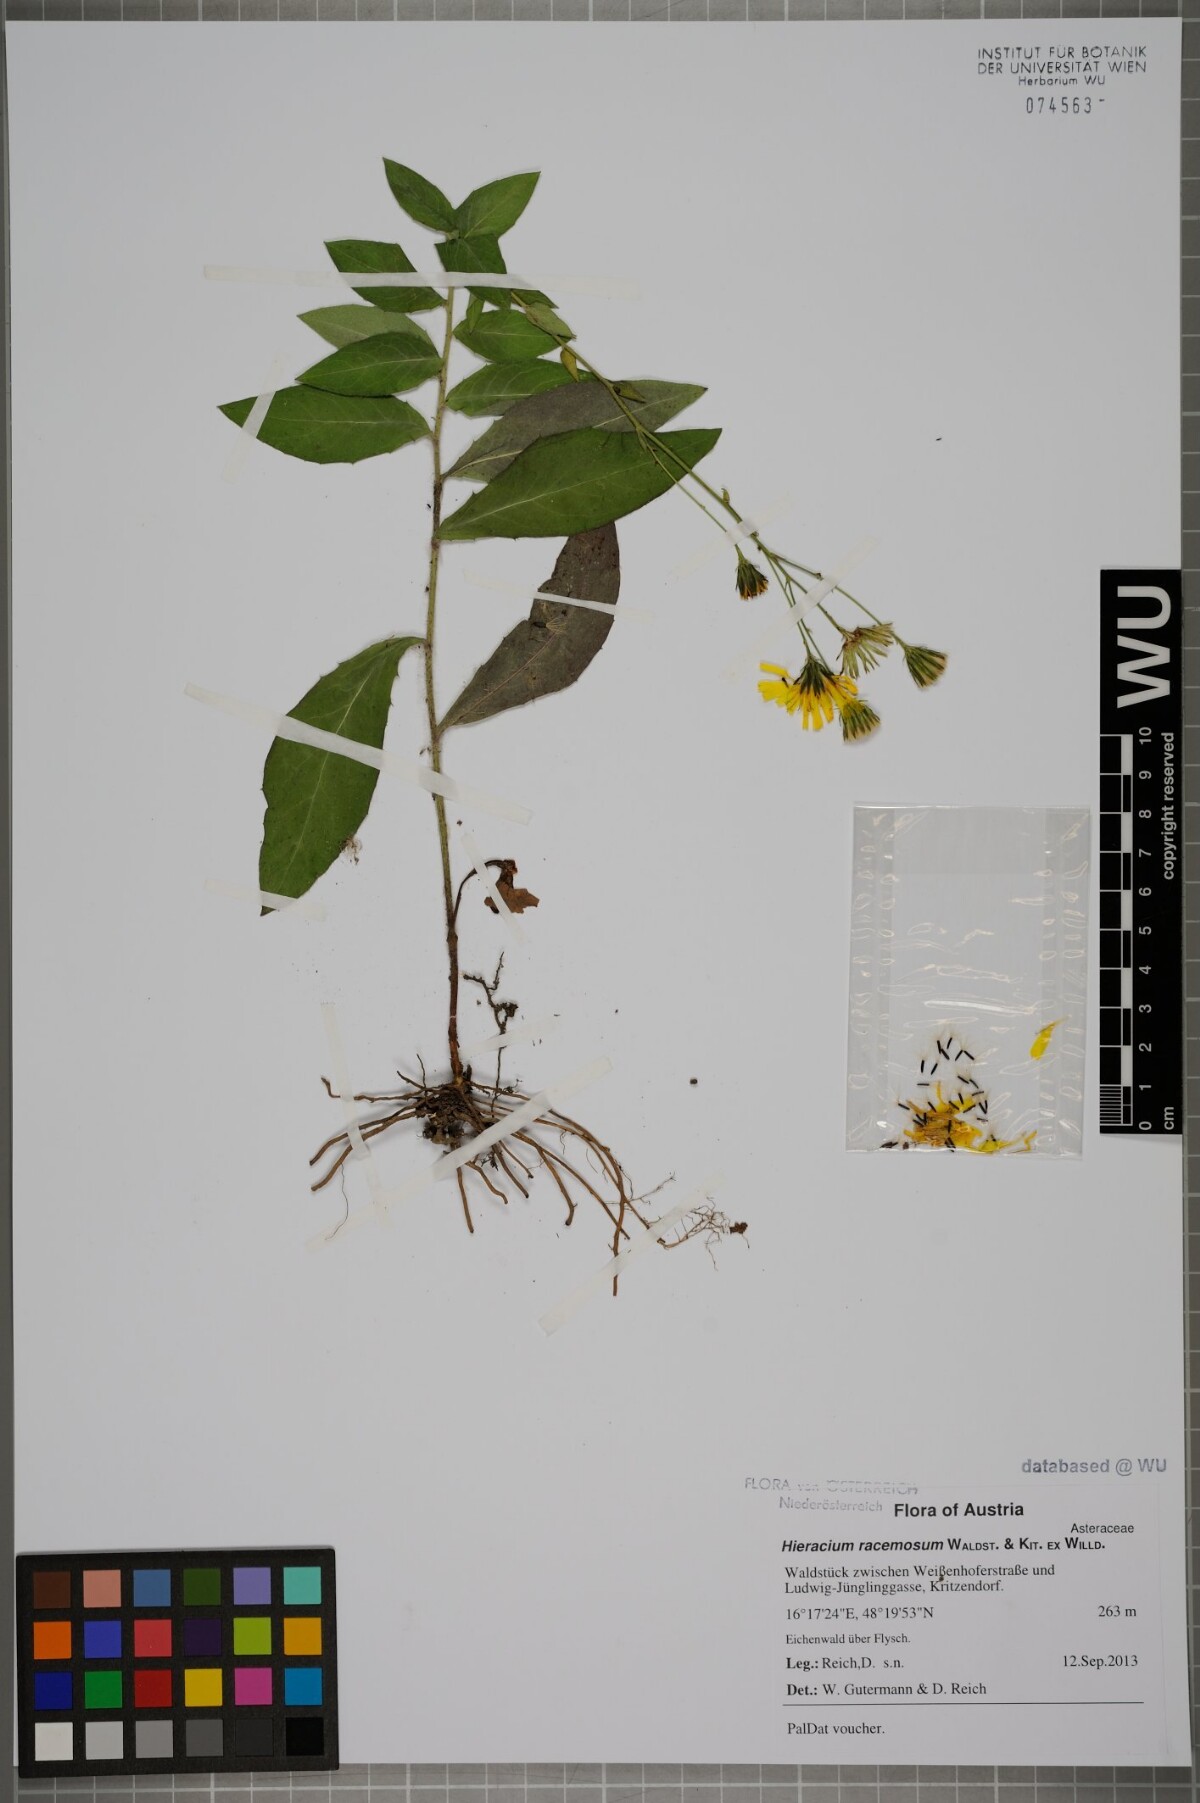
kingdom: Plantae
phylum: Tracheophyta
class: Magnoliopsida
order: Asterales
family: Asteraceae
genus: Hieracium
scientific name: Hieracium sabaudum
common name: New england hawkweed
